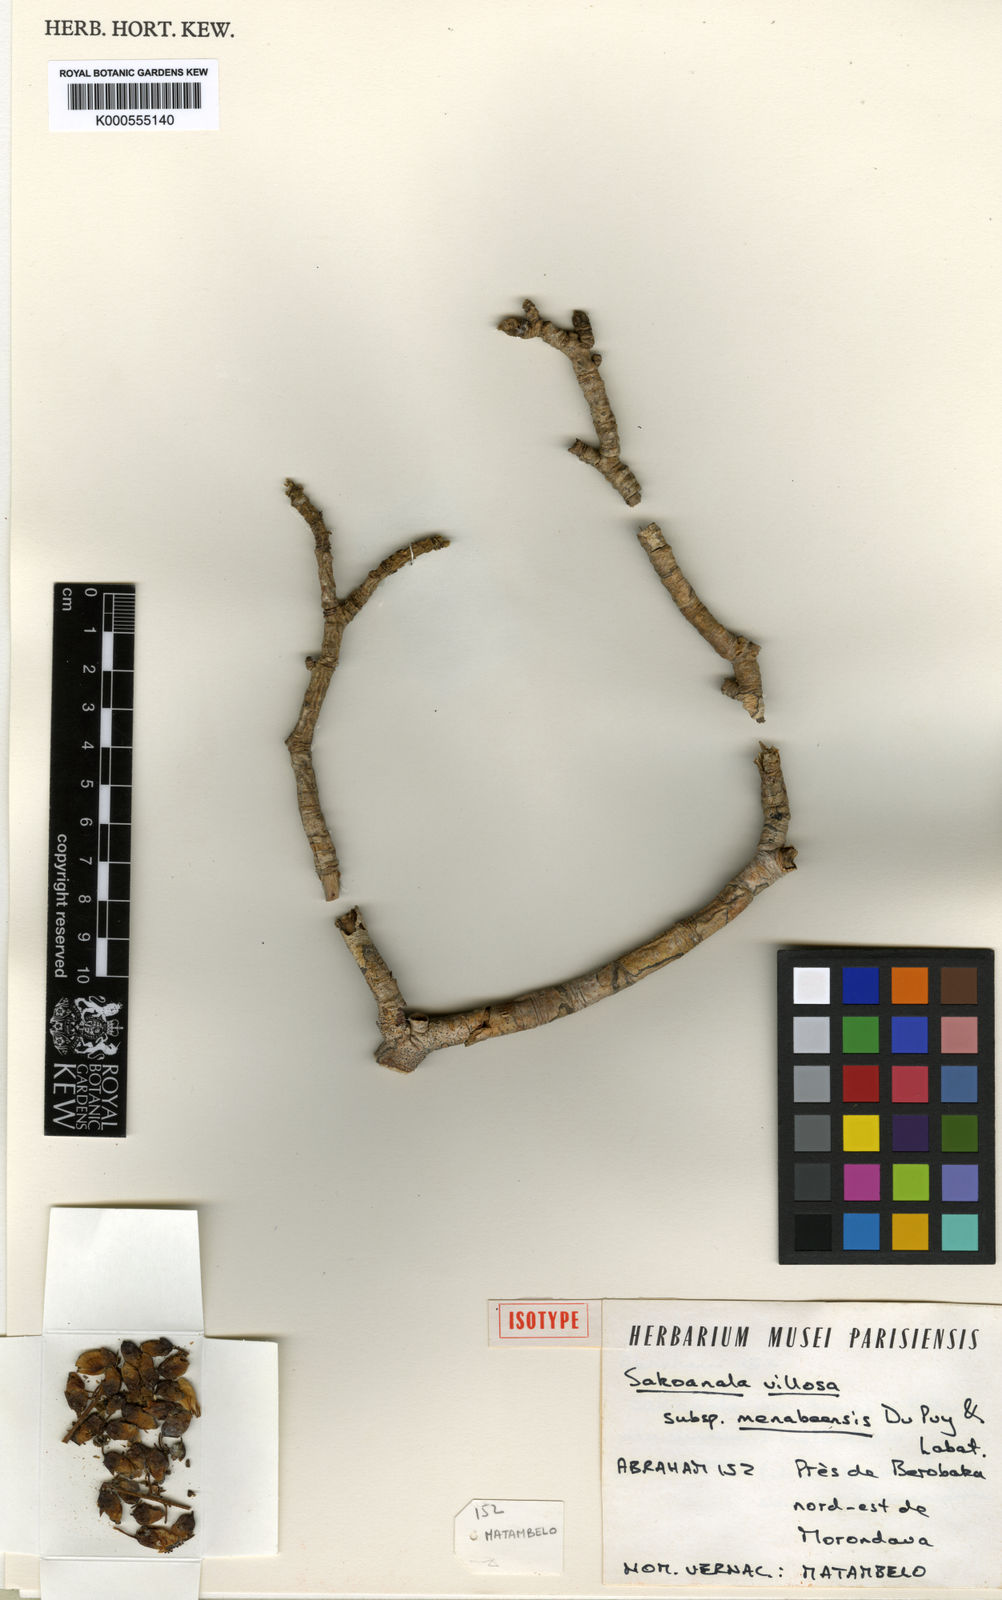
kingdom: Plantae
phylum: Tracheophyta
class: Magnoliopsida
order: Fabales
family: Fabaceae
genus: Sakoanala
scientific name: Sakoanala villosa
